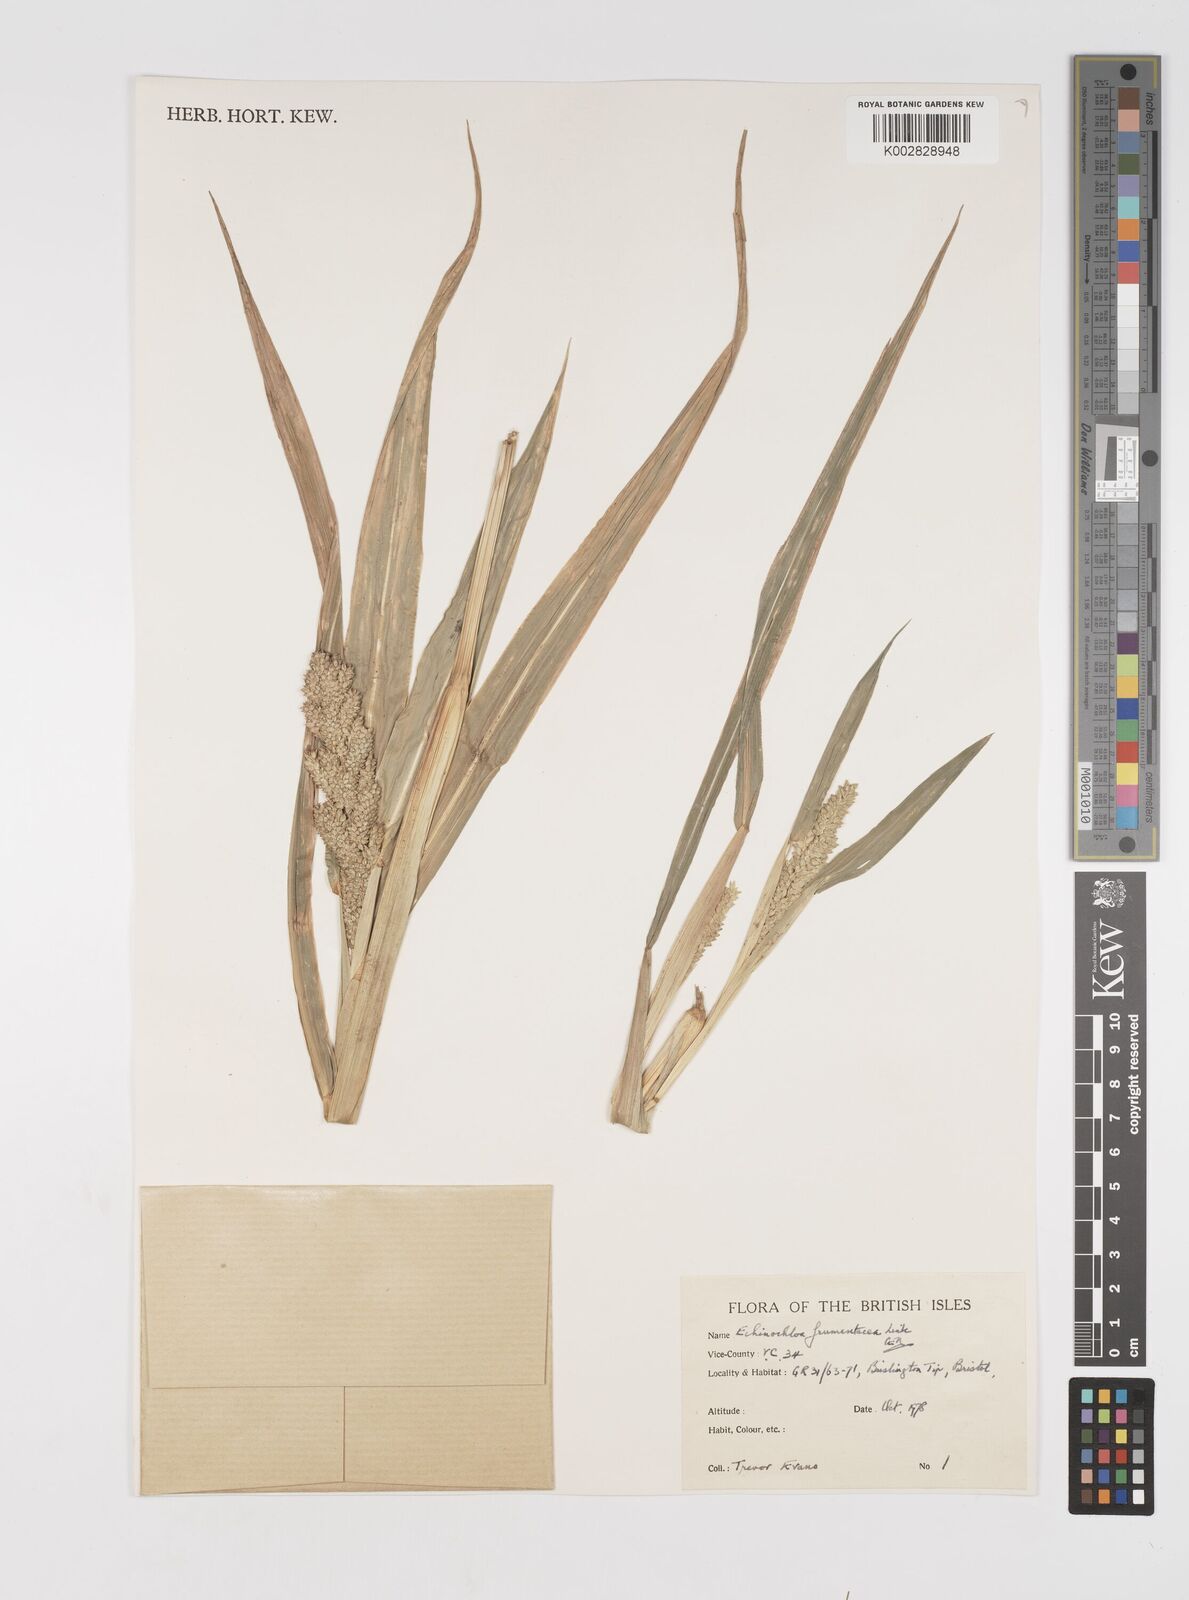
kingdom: Plantae
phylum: Tracheophyta
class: Liliopsida
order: Poales
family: Poaceae
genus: Echinochloa
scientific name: Echinochloa frumentacea
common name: Billion-dollar grass
